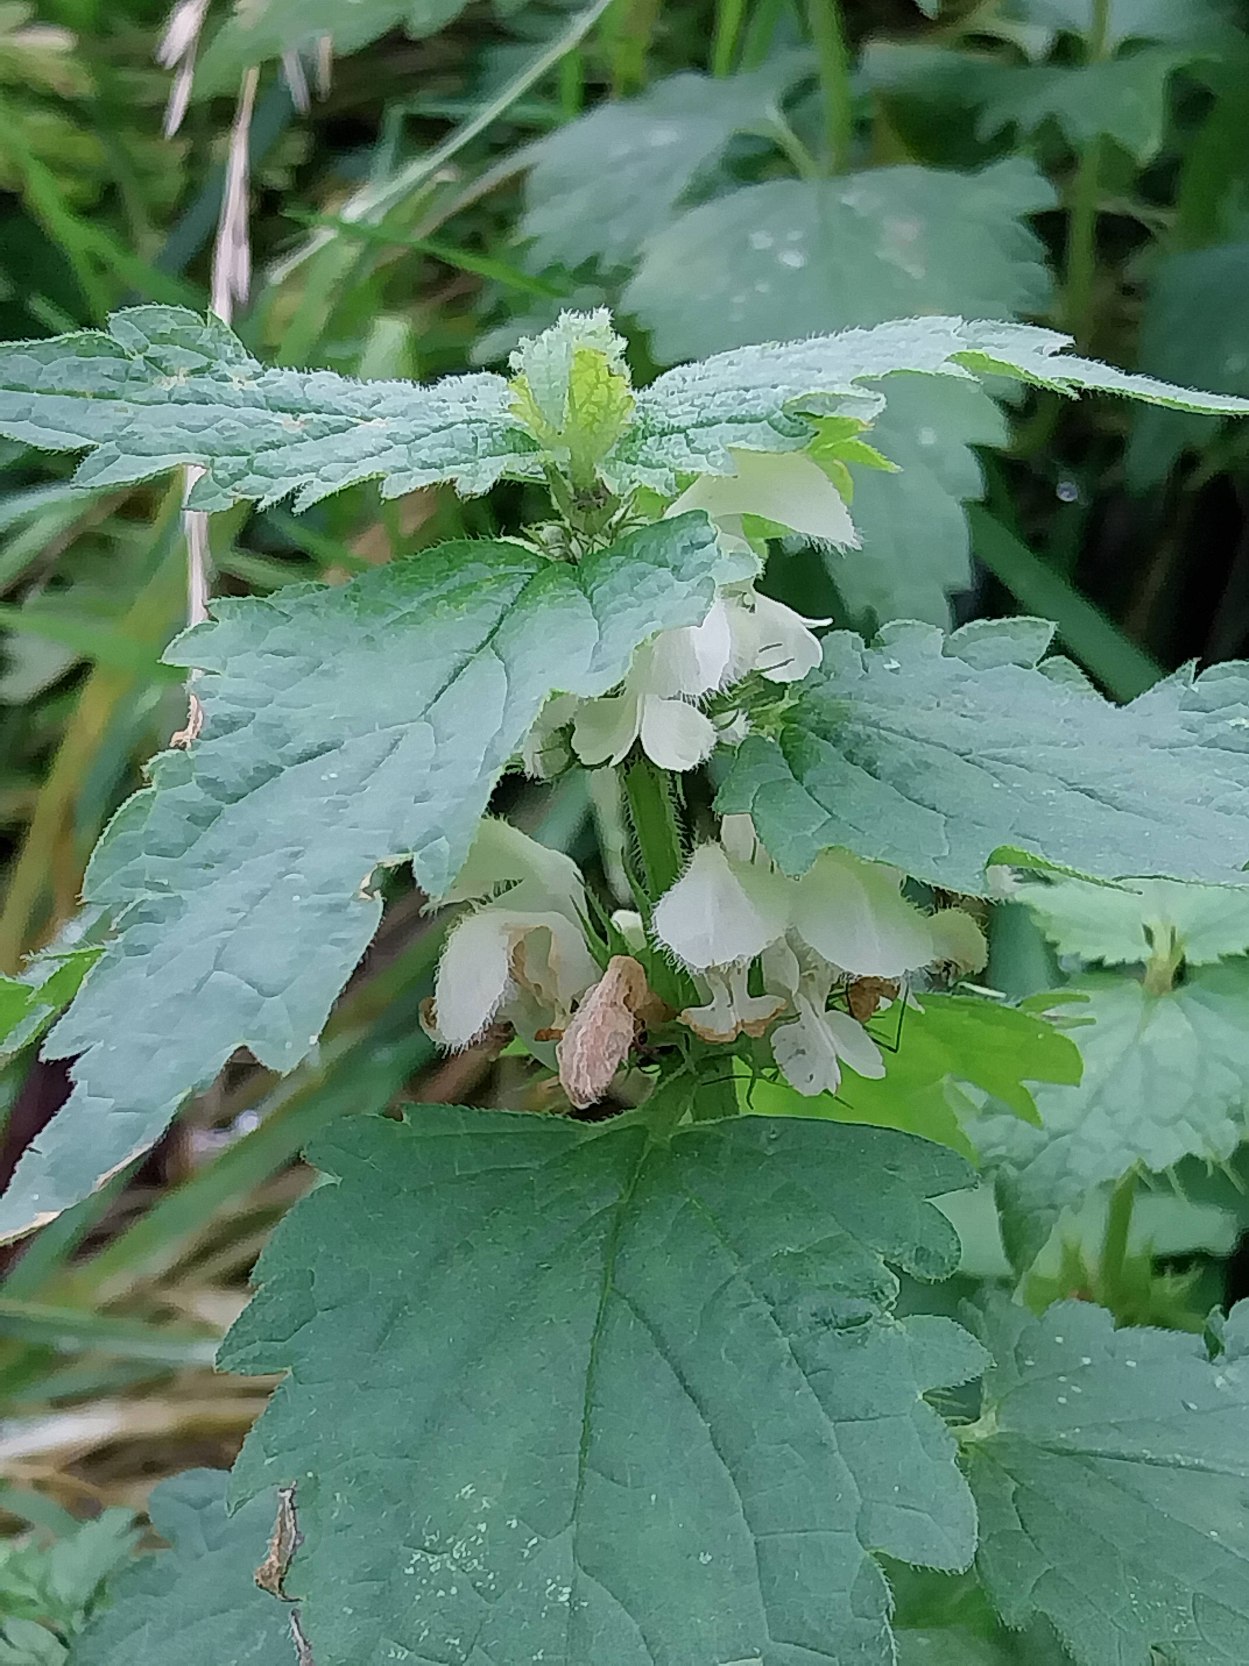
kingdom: Plantae
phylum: Tracheophyta
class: Magnoliopsida
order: Lamiales
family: Lamiaceae
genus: Lamium
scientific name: Lamium album
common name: Døvnælde
